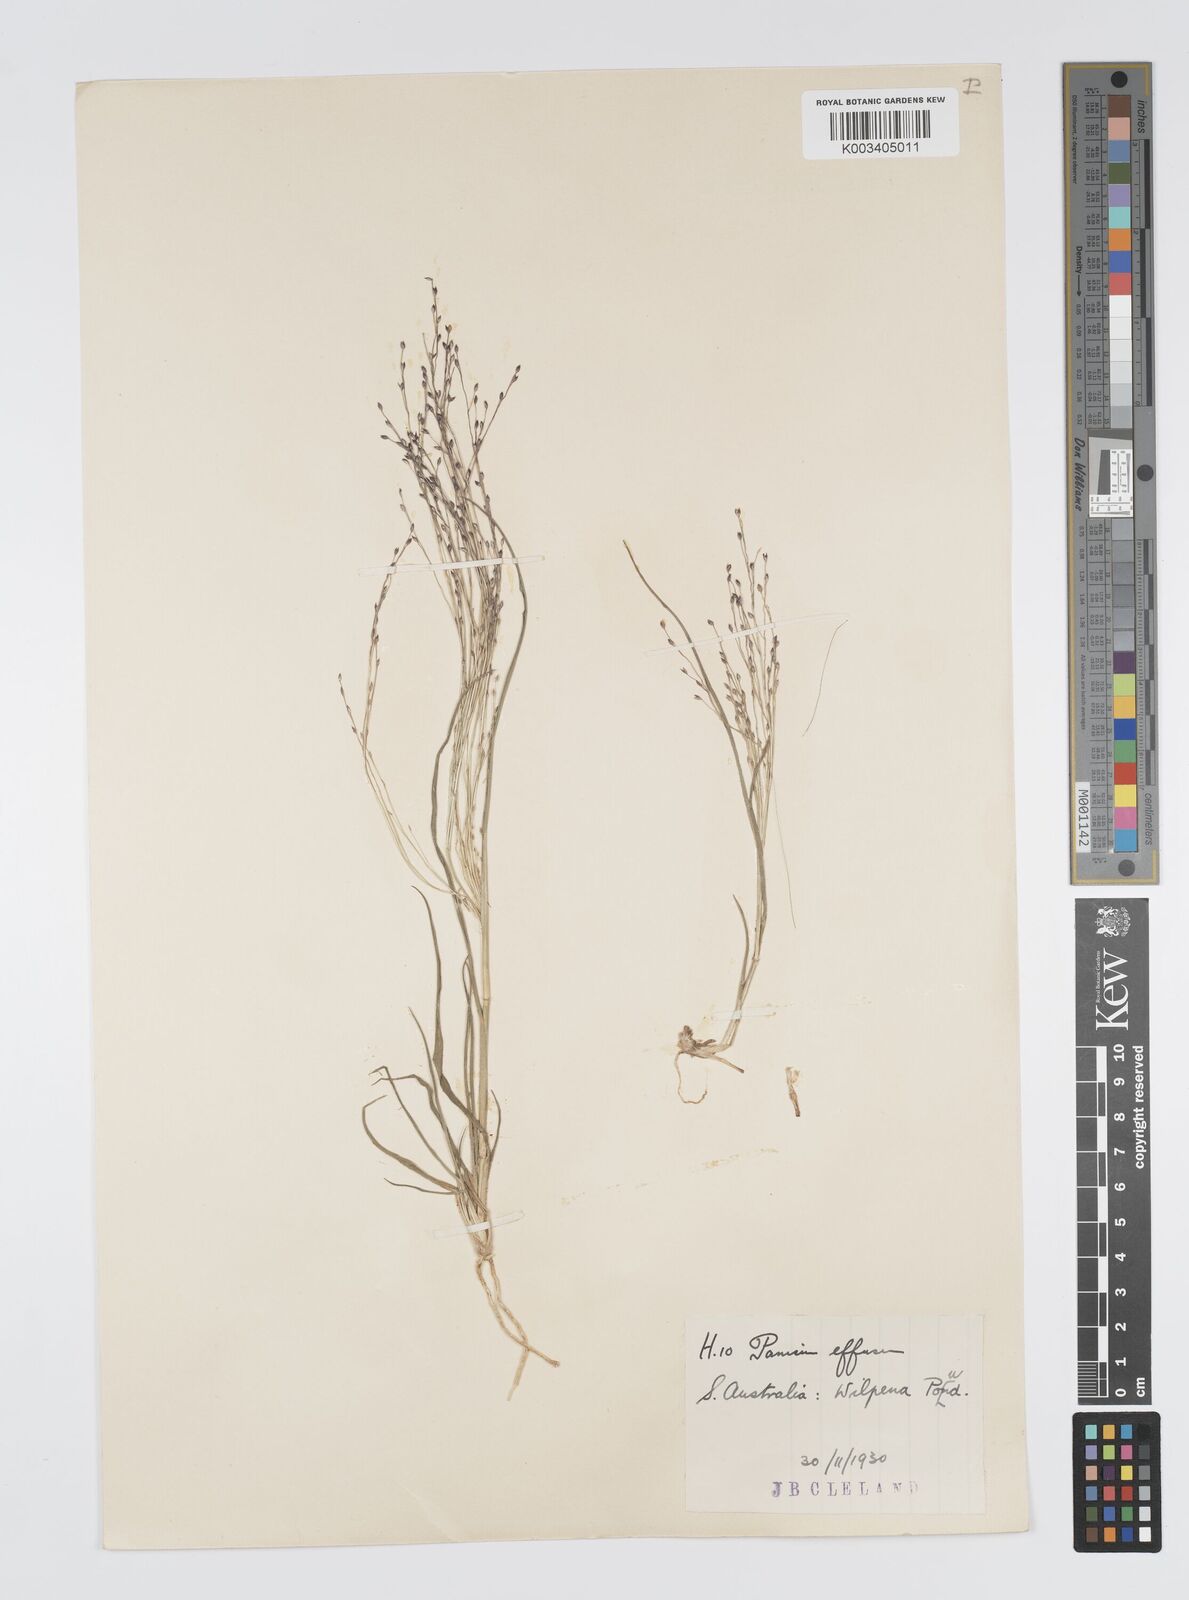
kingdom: Plantae
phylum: Tracheophyta
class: Liliopsida
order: Poales
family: Poaceae
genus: Panicum
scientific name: Panicum effusum
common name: Hairy panic grass
